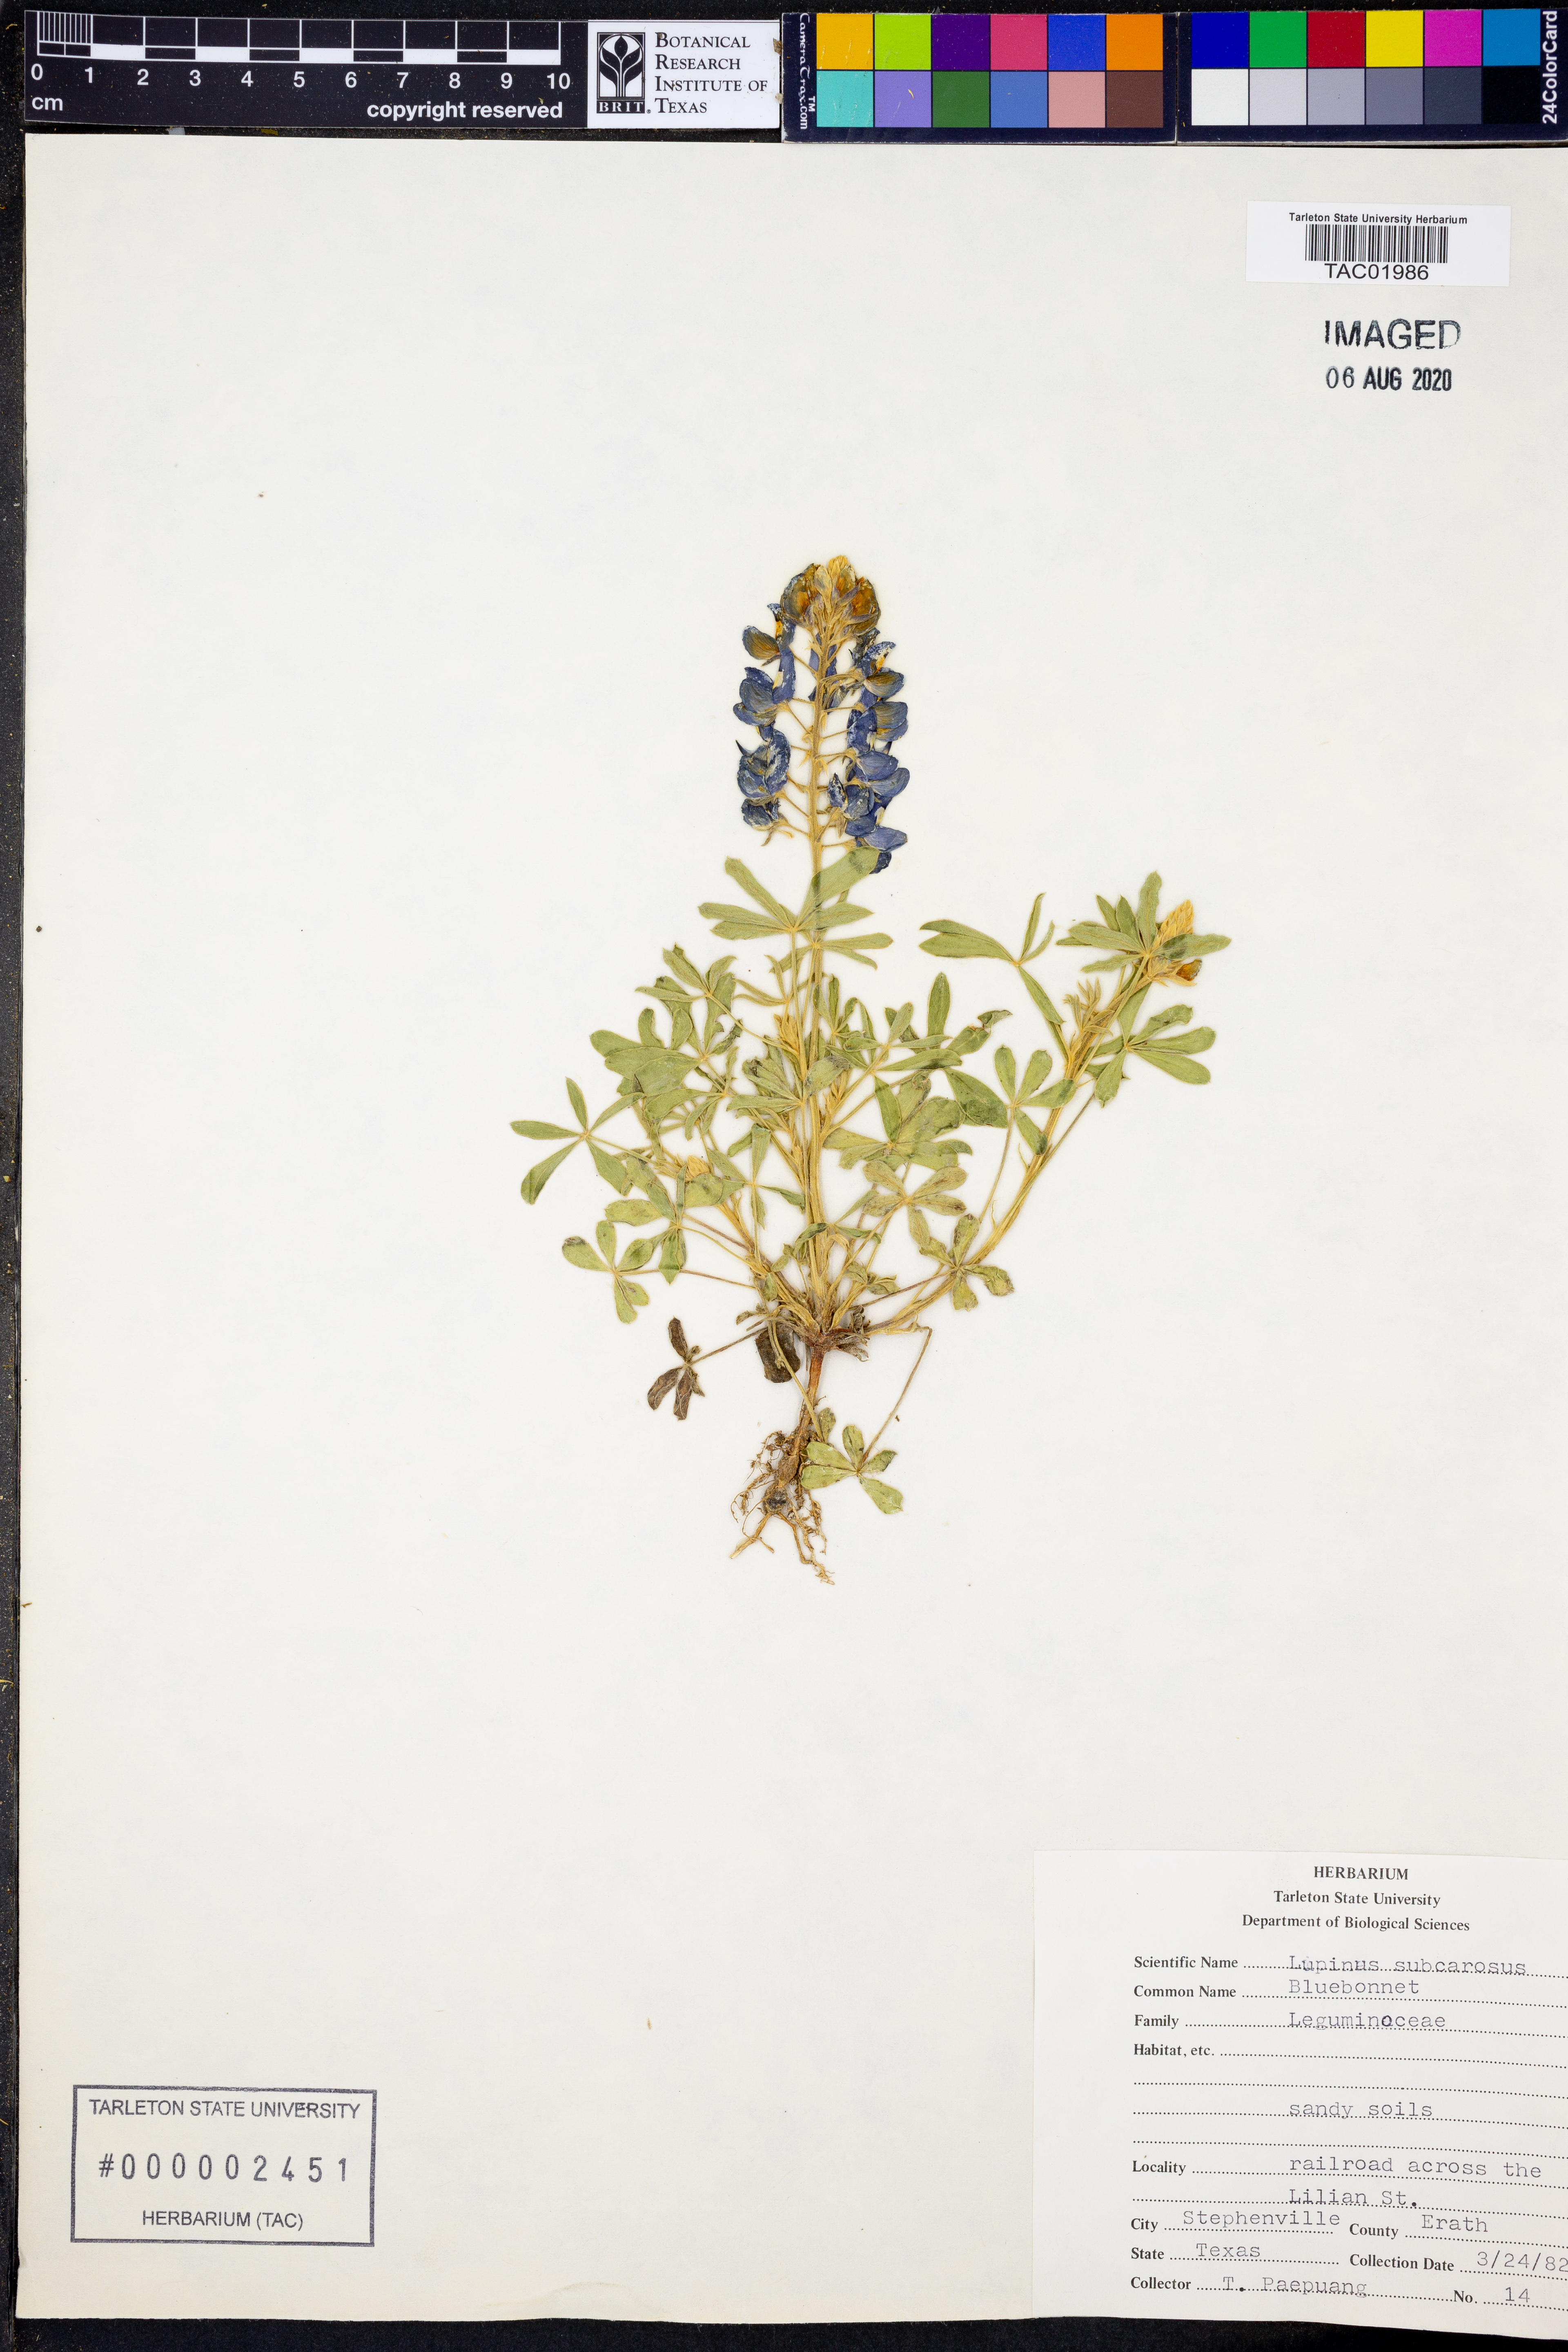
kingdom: Plantae
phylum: Tracheophyta
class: Magnoliopsida
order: Fabales
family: Fabaceae
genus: Lupinus
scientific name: Lupinus subcarnosus
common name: Texas bluebonnet
